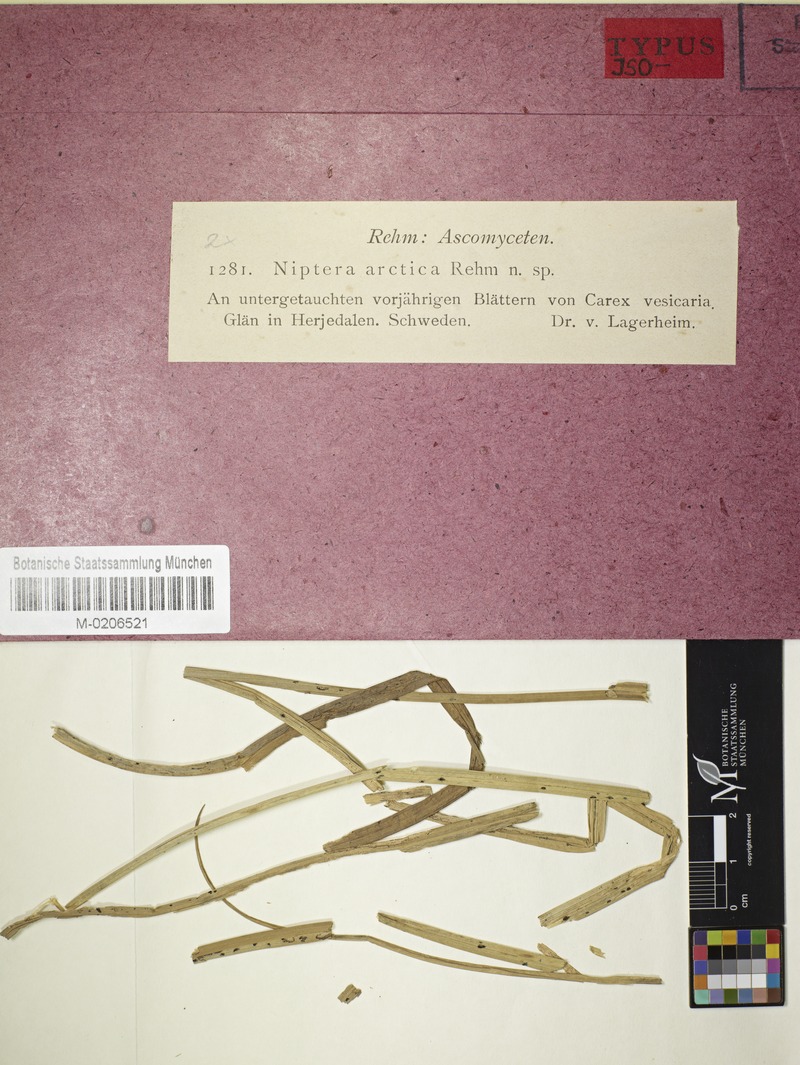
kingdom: Fungi
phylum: Ascomycota
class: Leotiomycetes
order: Helotiales
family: Mollisiaceae
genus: Niptera
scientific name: Niptera arctica
